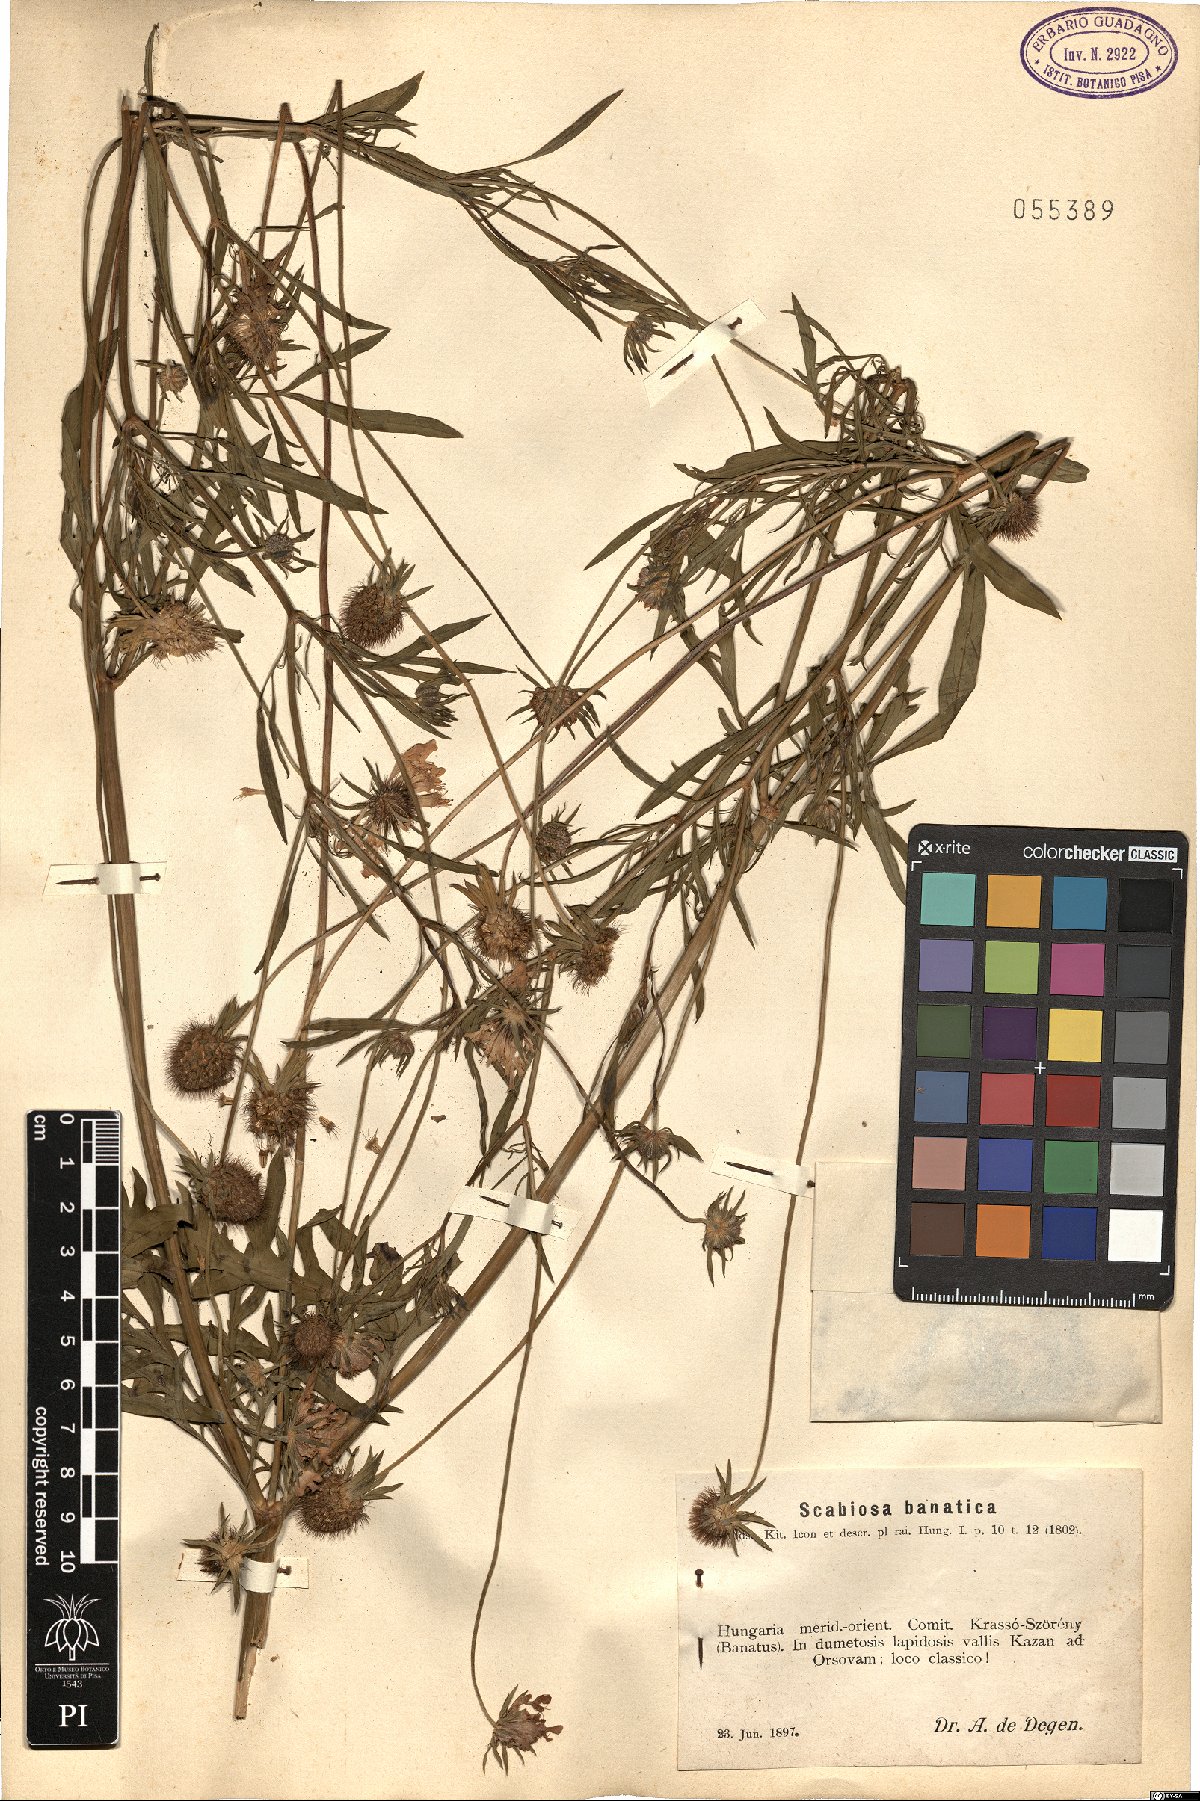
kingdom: Plantae
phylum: Tracheophyta
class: Magnoliopsida
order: Dipsacales
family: Caprifoliaceae
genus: Scabiosa
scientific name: Scabiosa columbaria
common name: Small scabious
